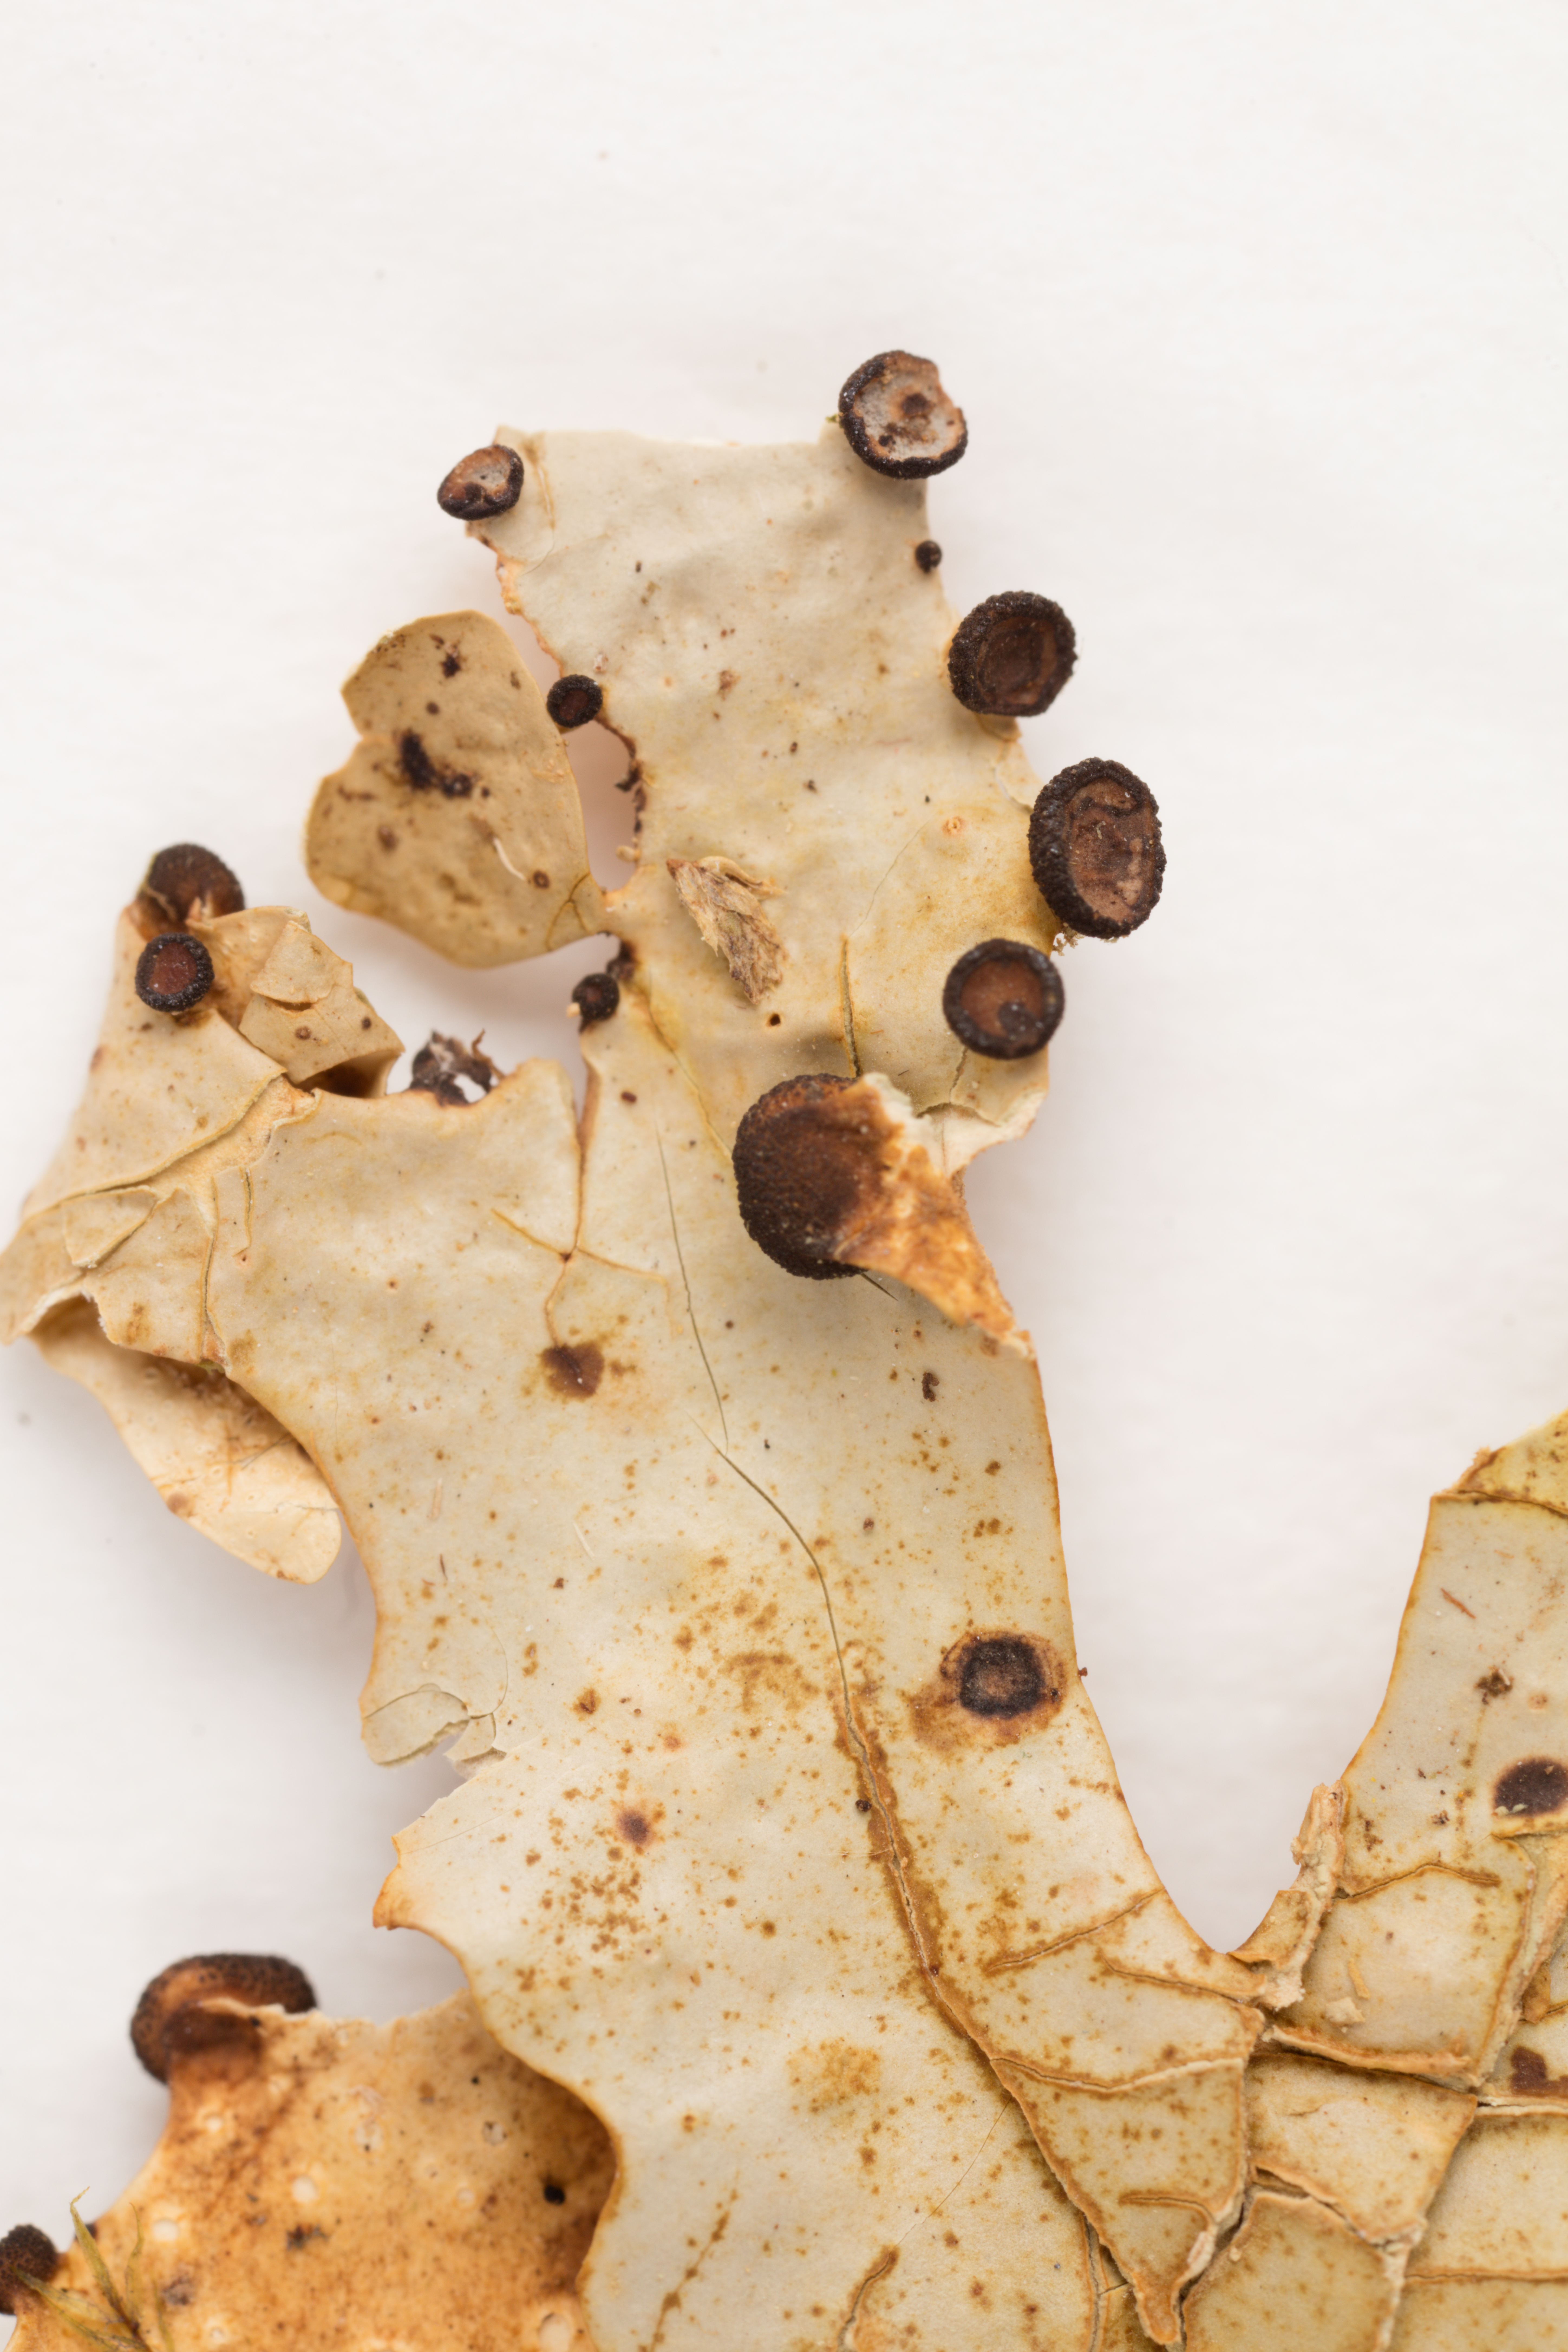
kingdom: Fungi
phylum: Ascomycota
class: Lecanoromycetes
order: Peltigerales
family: Lobariaceae
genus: Sticta
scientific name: Sticta pedunculata
